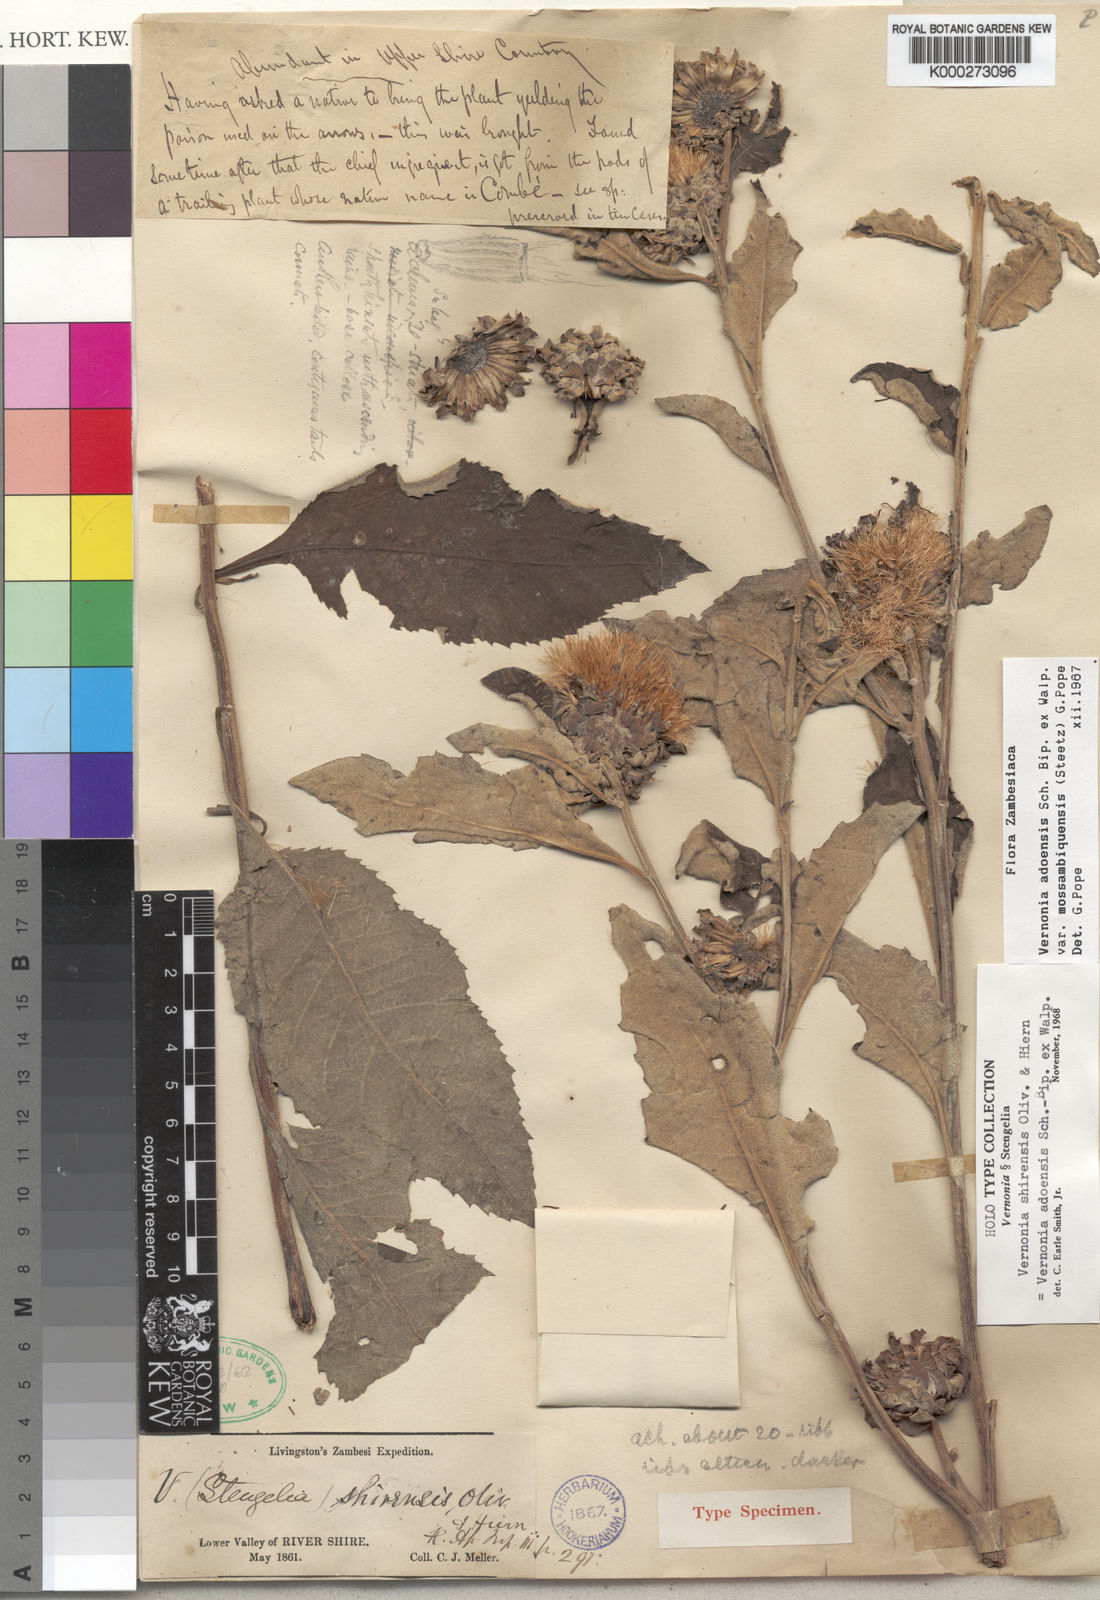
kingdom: Plantae
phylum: Tracheophyta
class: Magnoliopsida
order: Asterales
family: Asteraceae
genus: Baccharoides
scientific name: Baccharoides adoensis
